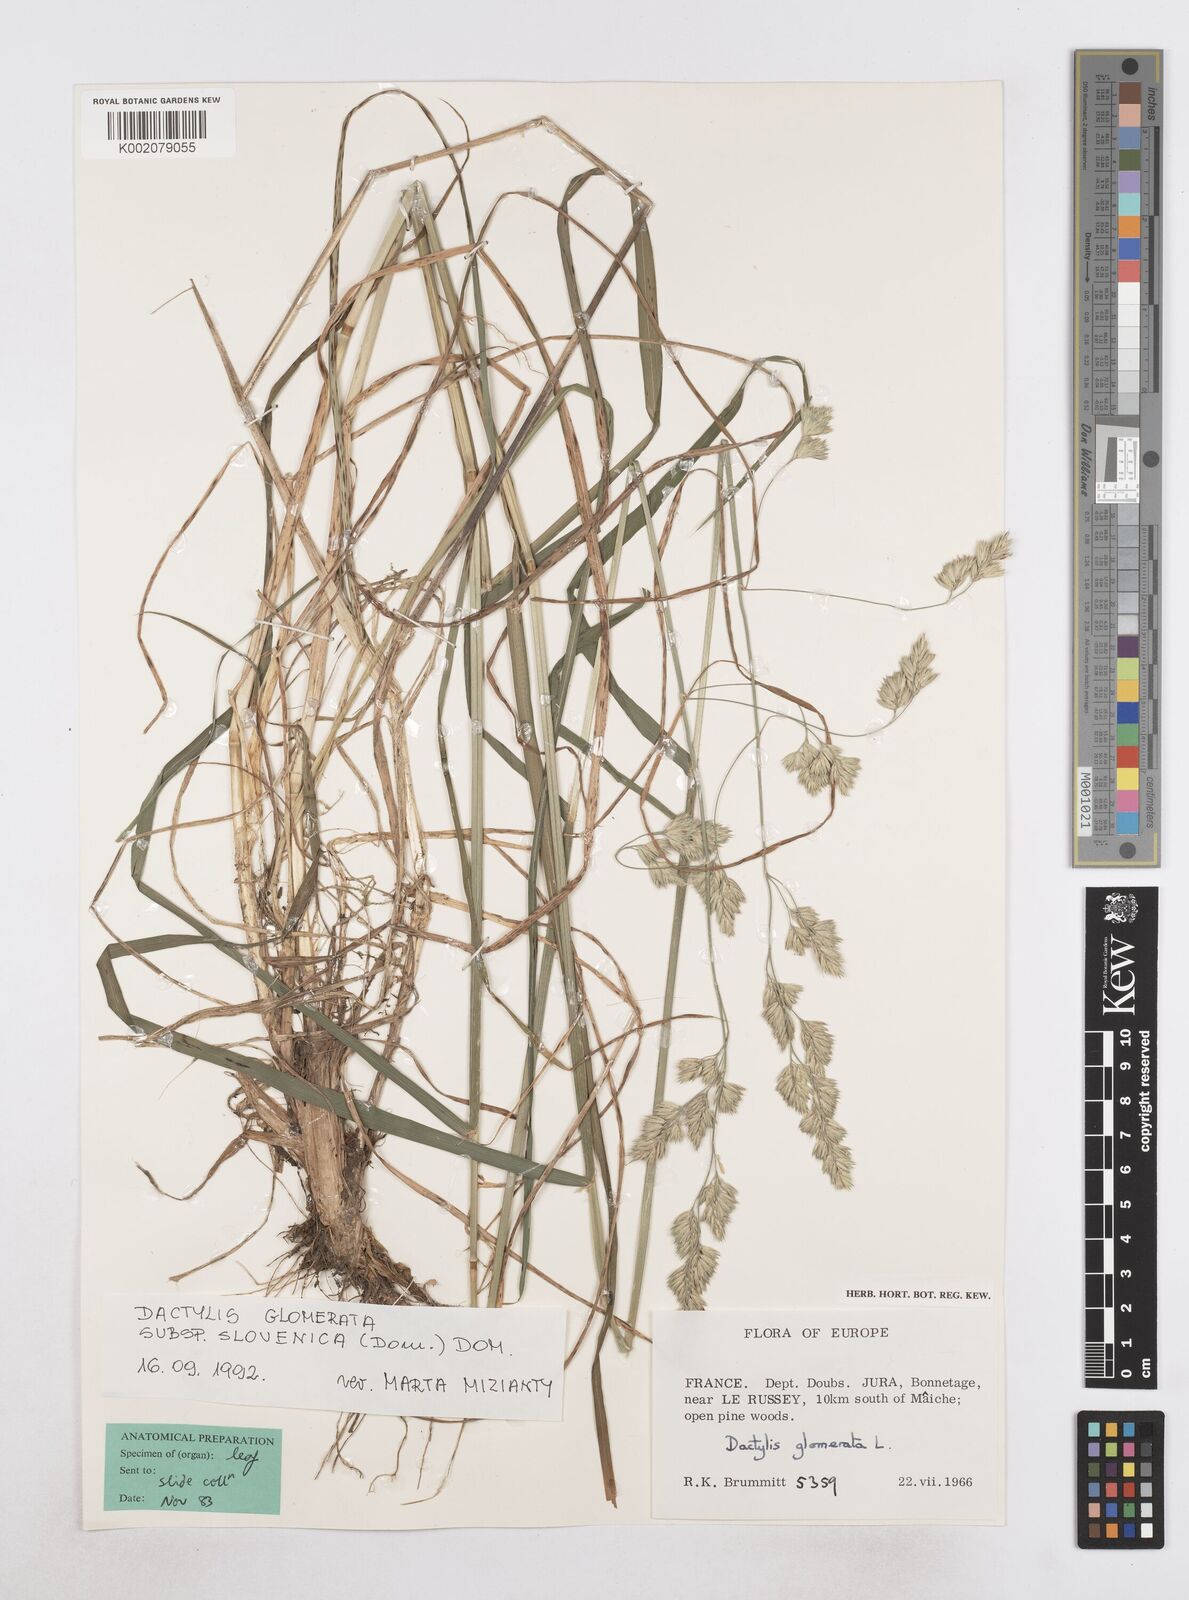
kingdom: Plantae
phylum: Tracheophyta
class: Liliopsida
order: Poales
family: Poaceae
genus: Dactylis
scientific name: Dactylis glomerata
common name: Orchardgrass
